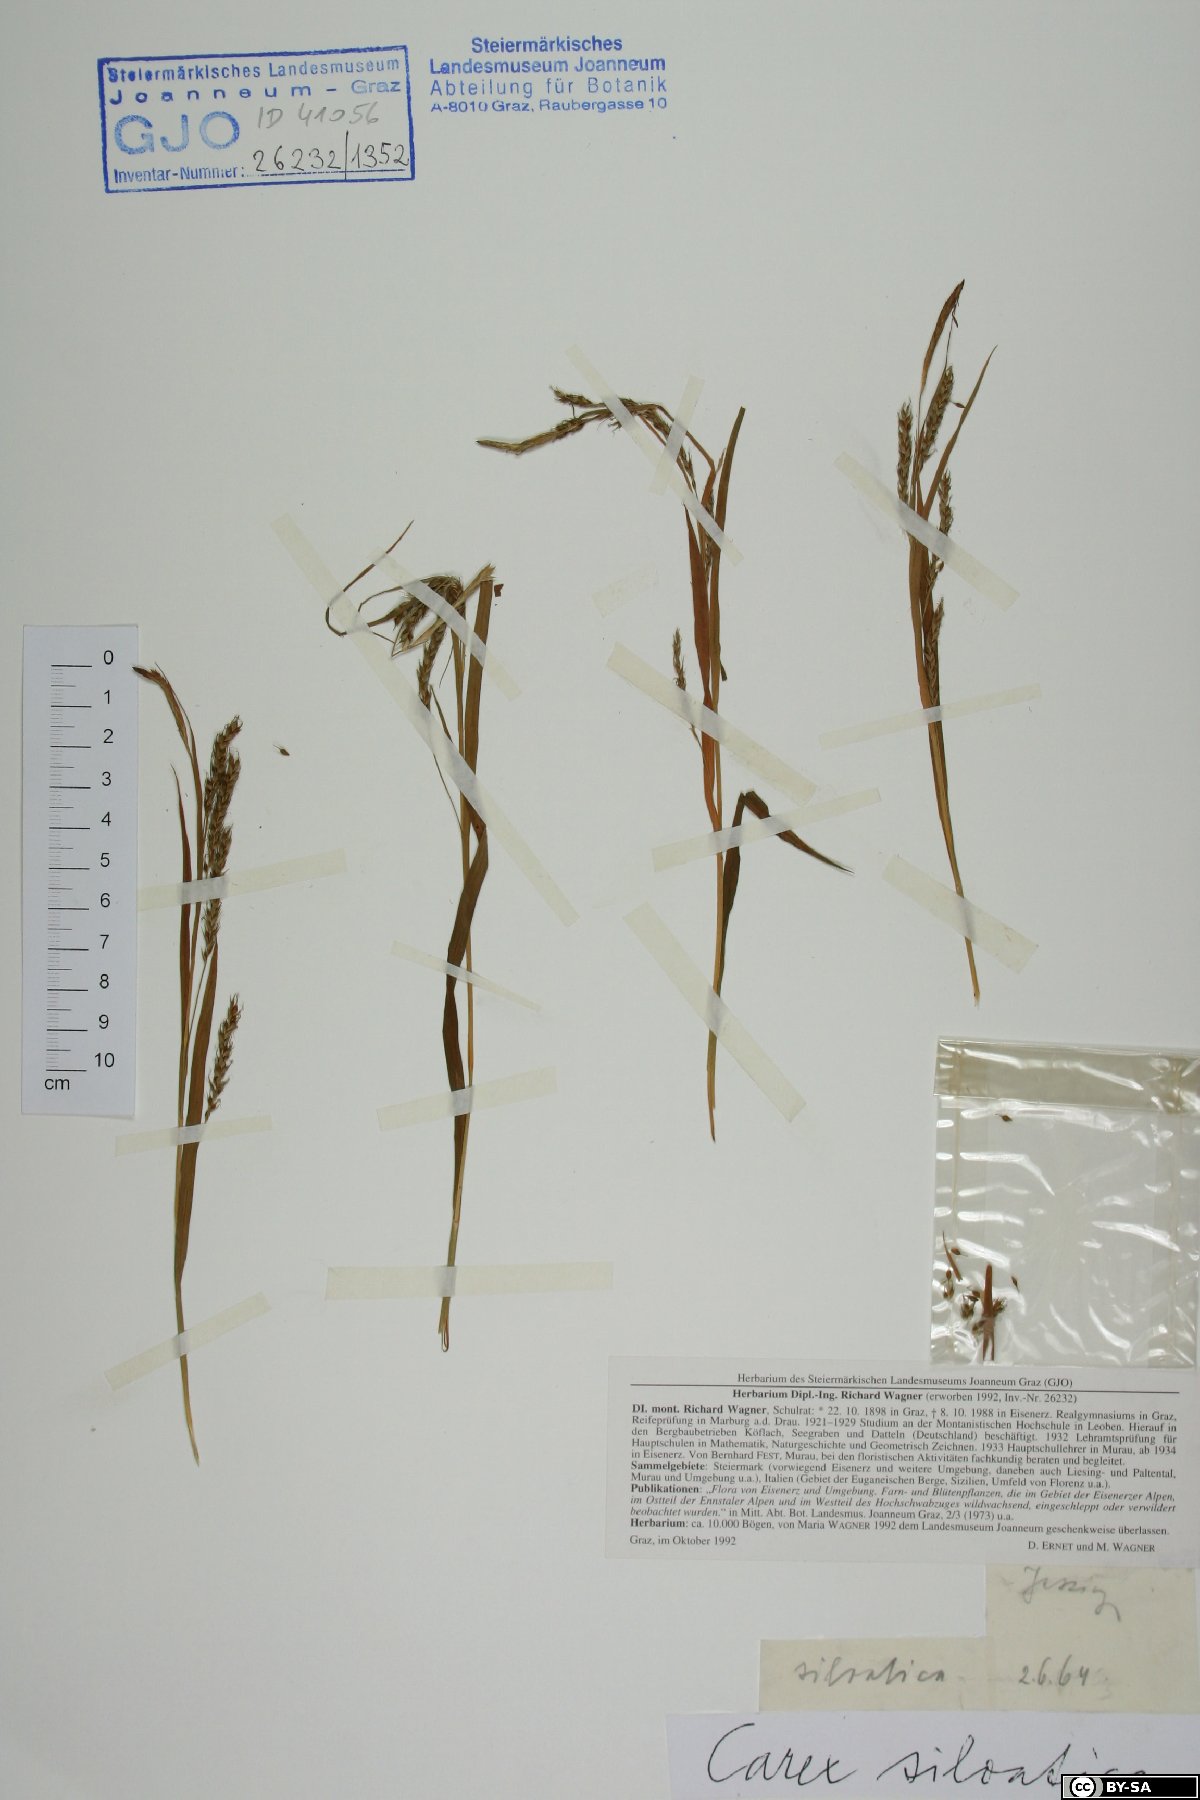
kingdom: Plantae
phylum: Tracheophyta
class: Liliopsida
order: Poales
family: Cyperaceae
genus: Carex
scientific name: Carex sylvatica
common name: Wood-sedge
